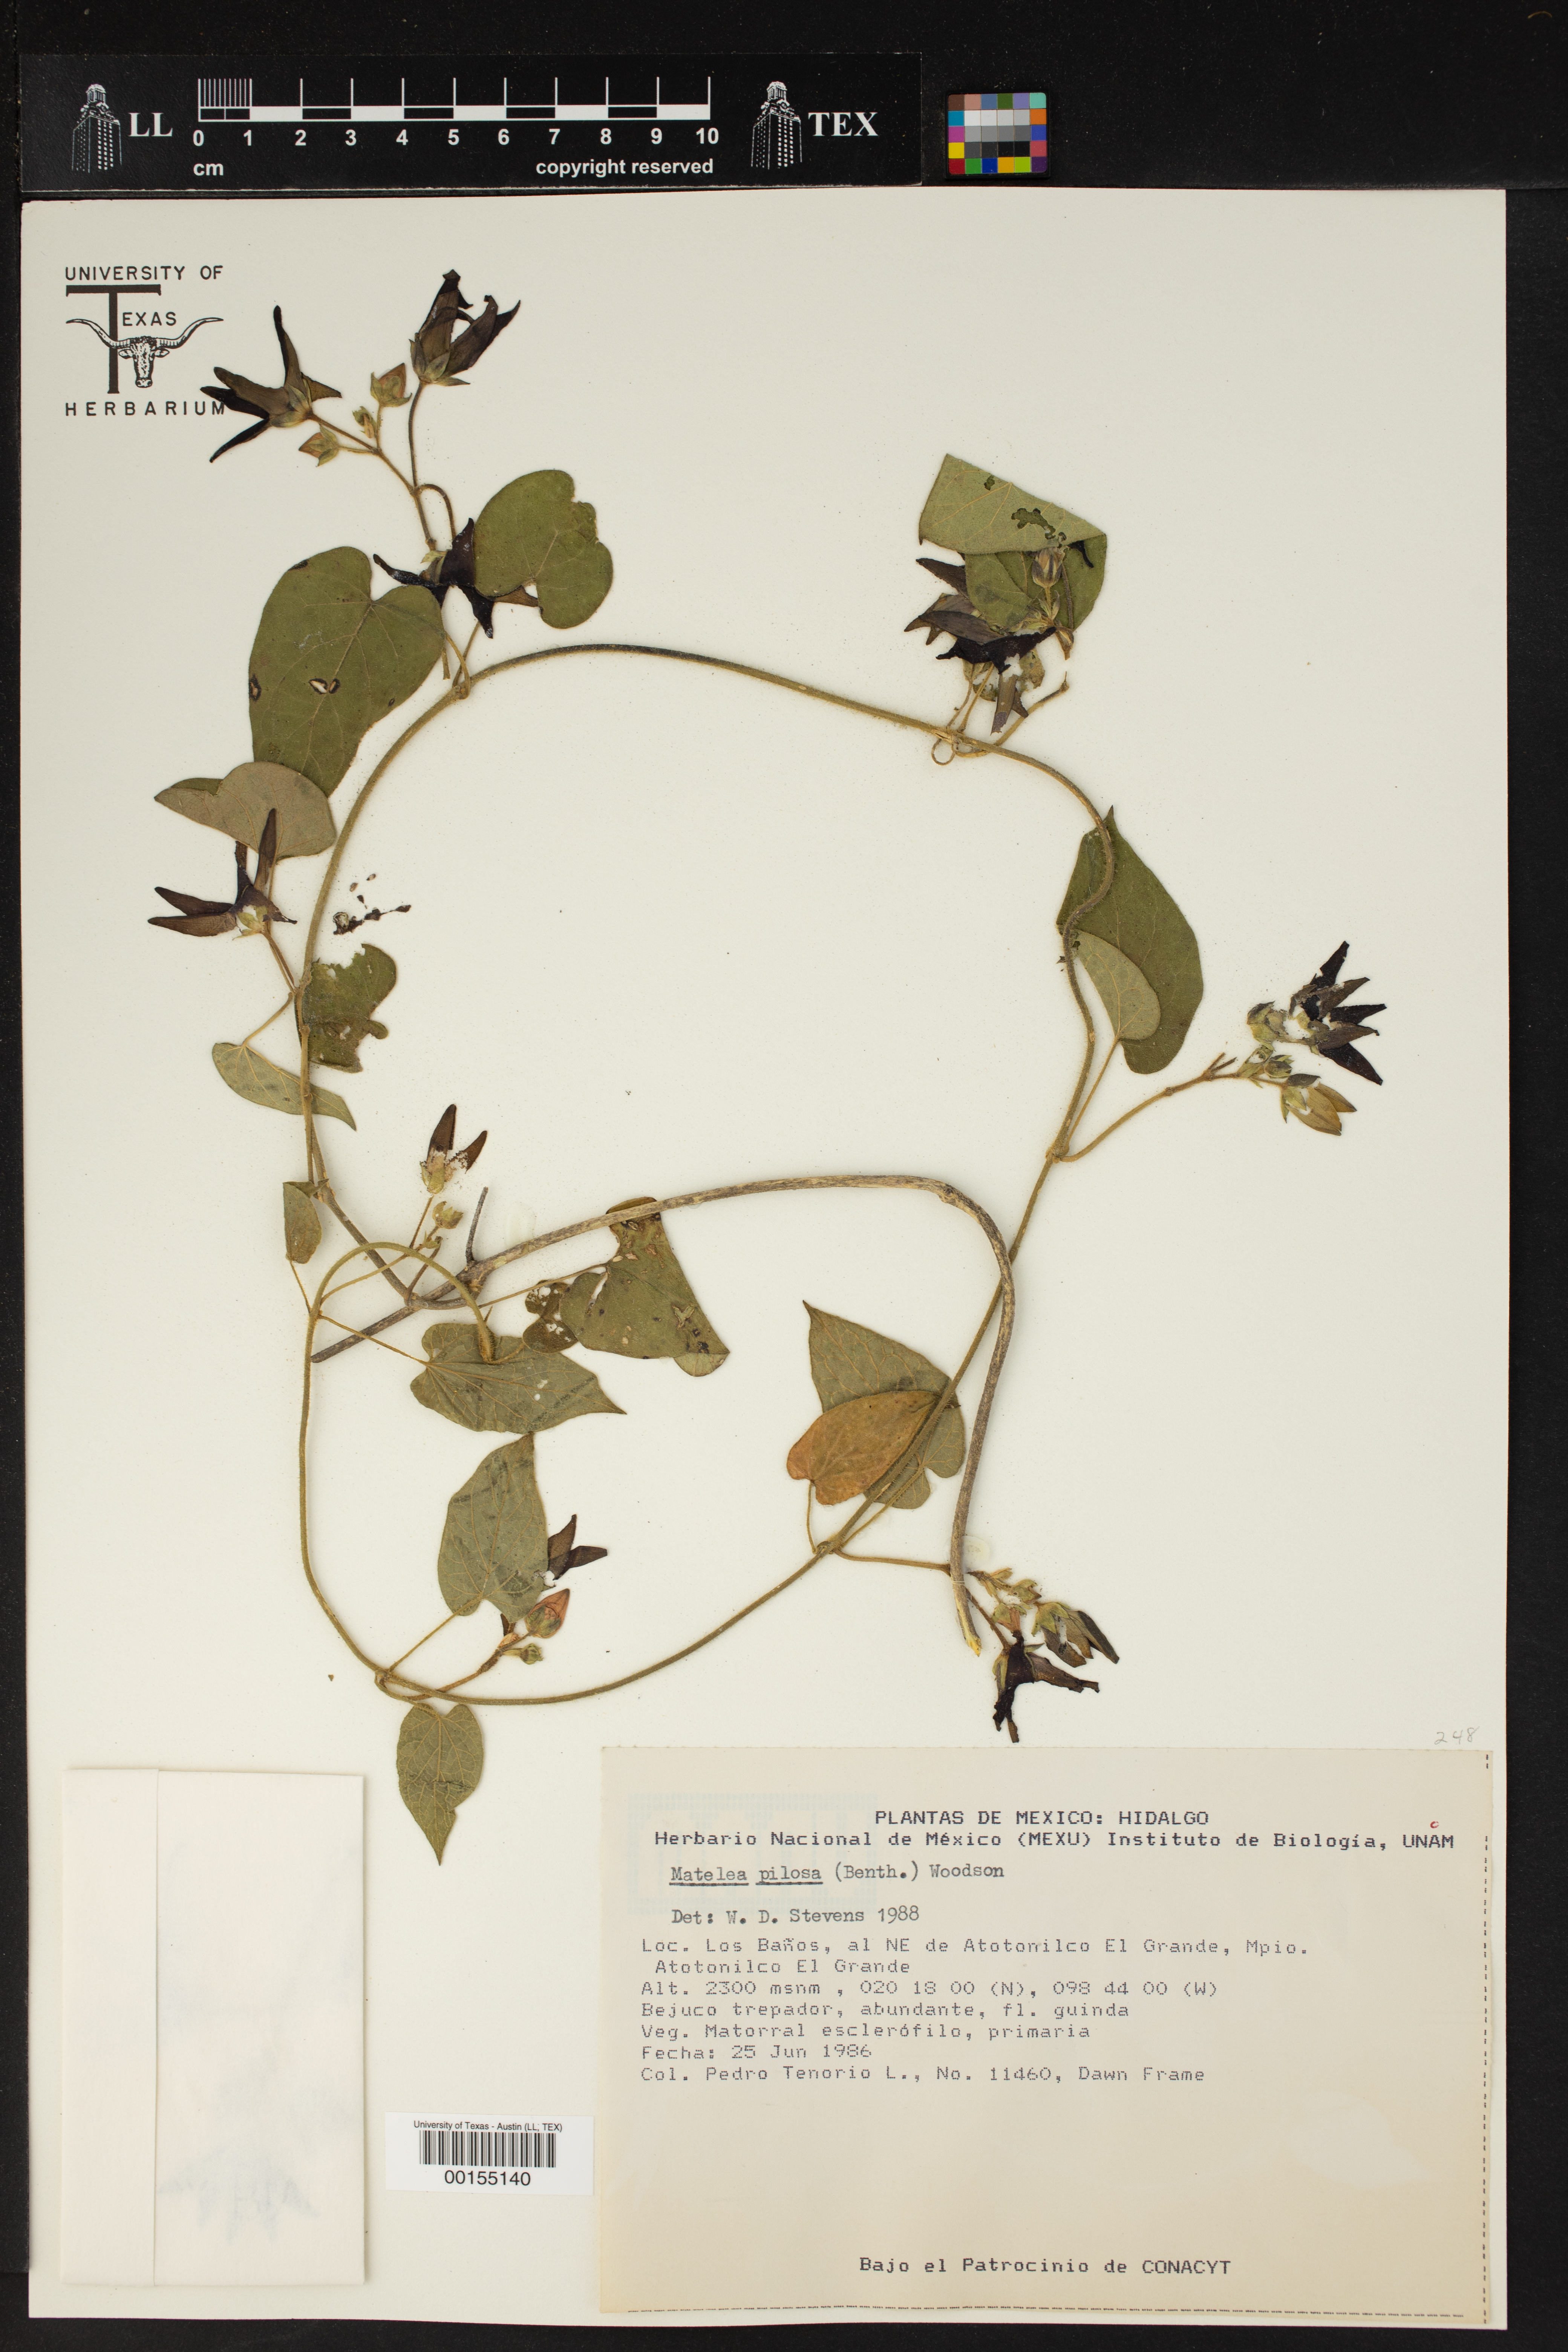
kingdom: Plantae
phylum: Tracheophyta
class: Magnoliopsida
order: Gentianales
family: Apocynaceae
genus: Matelea
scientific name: Matelea pilosa
